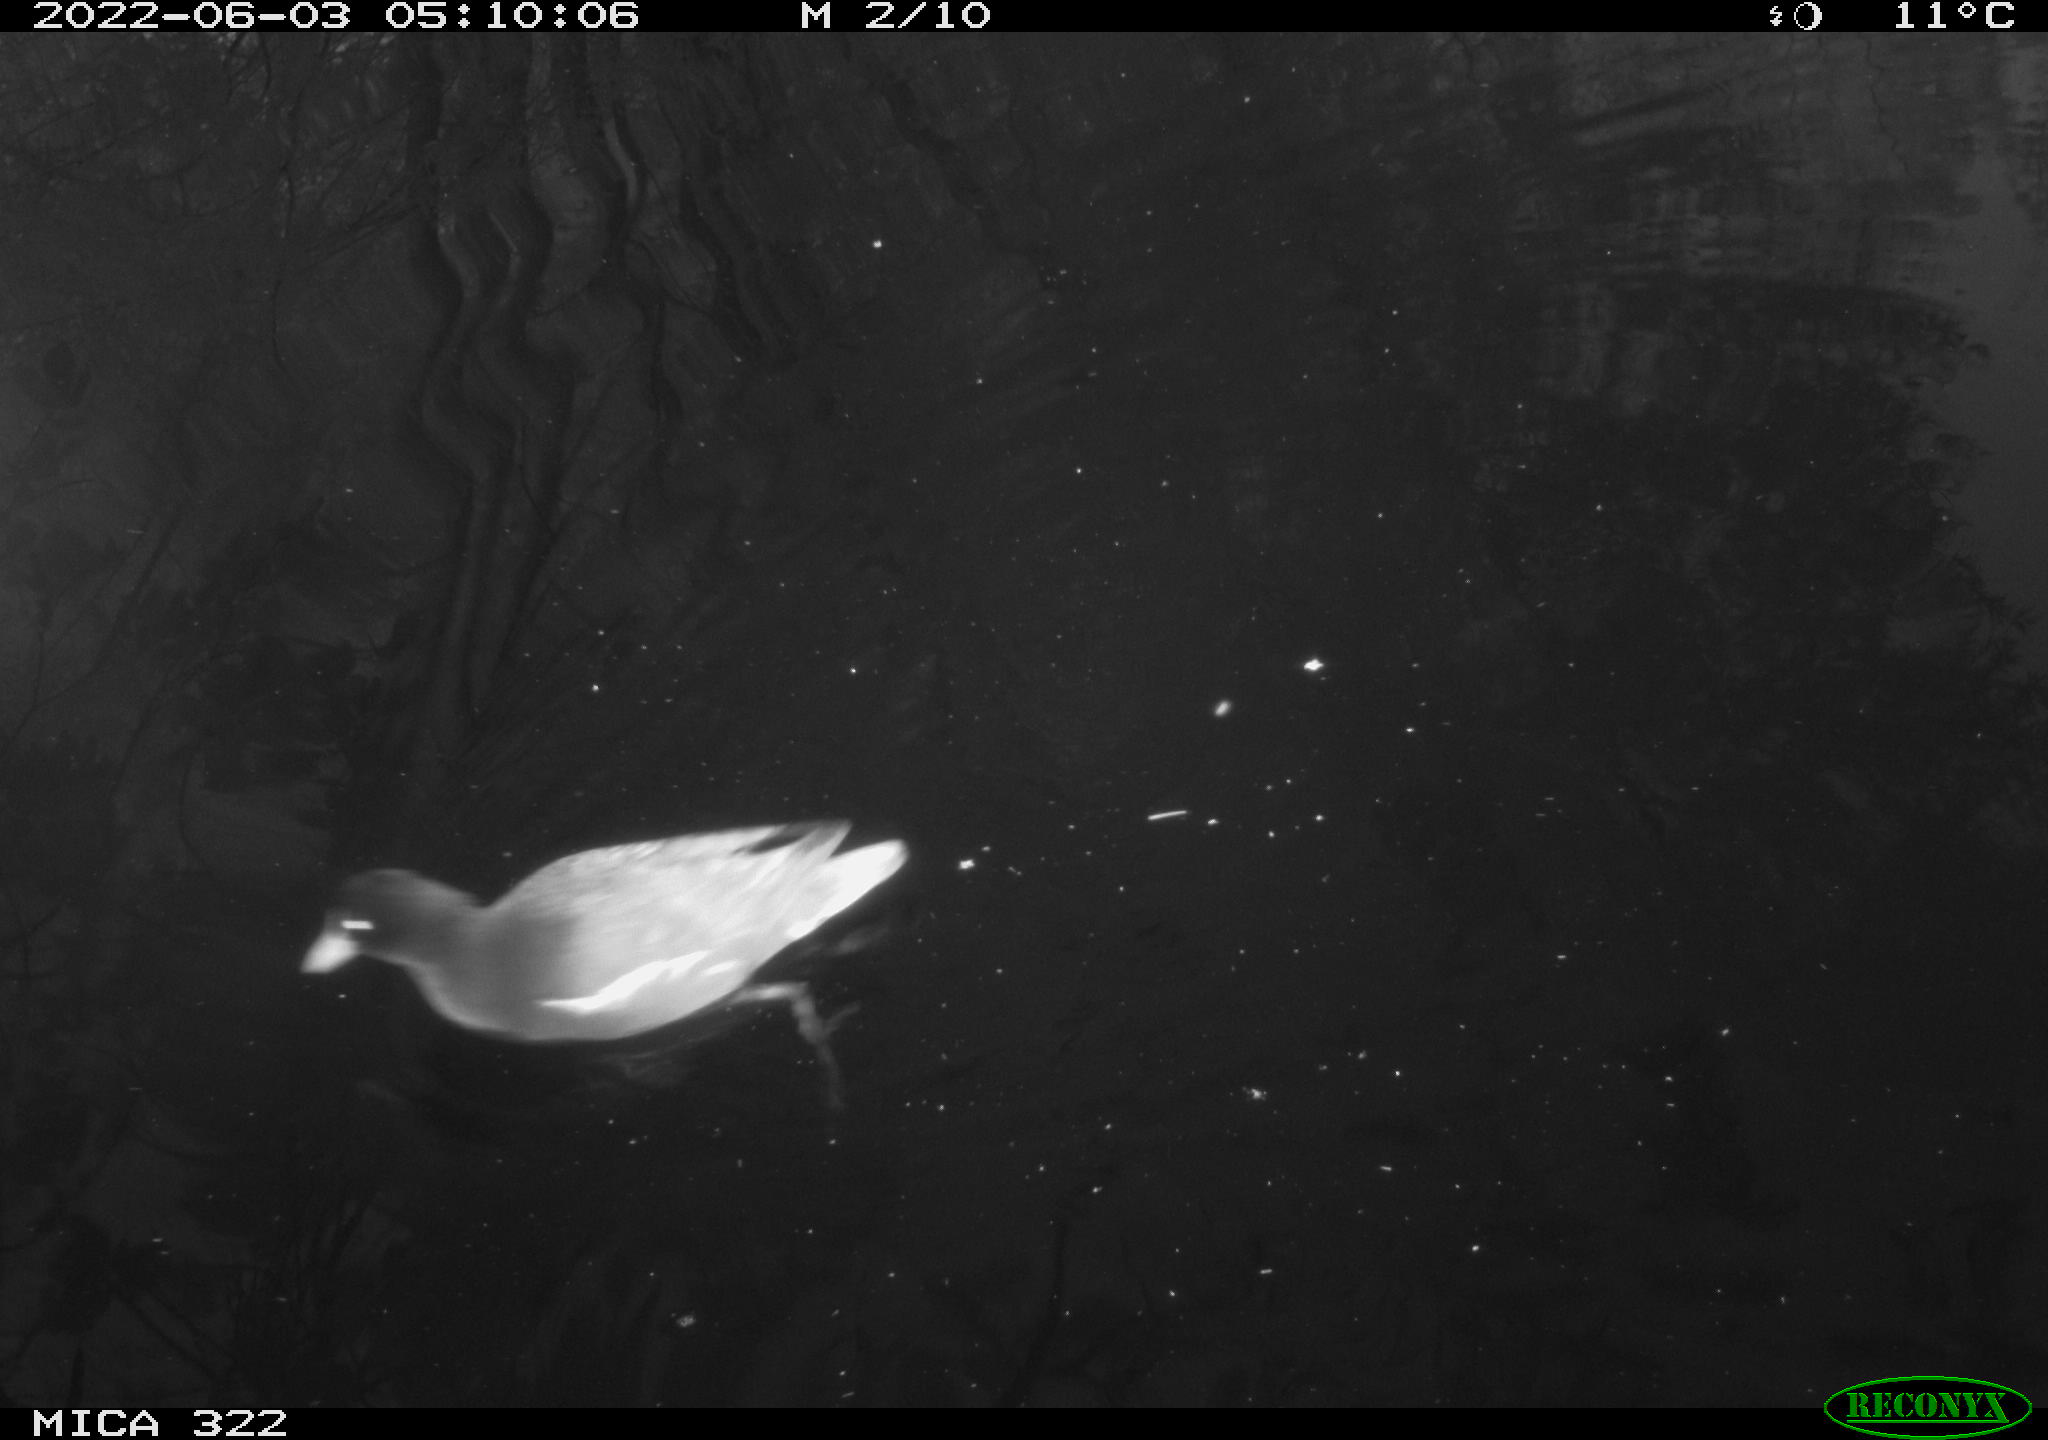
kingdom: Animalia
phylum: Chordata
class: Aves
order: Gruiformes
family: Rallidae
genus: Gallinula
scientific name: Gallinula chloropus
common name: Common moorhen
